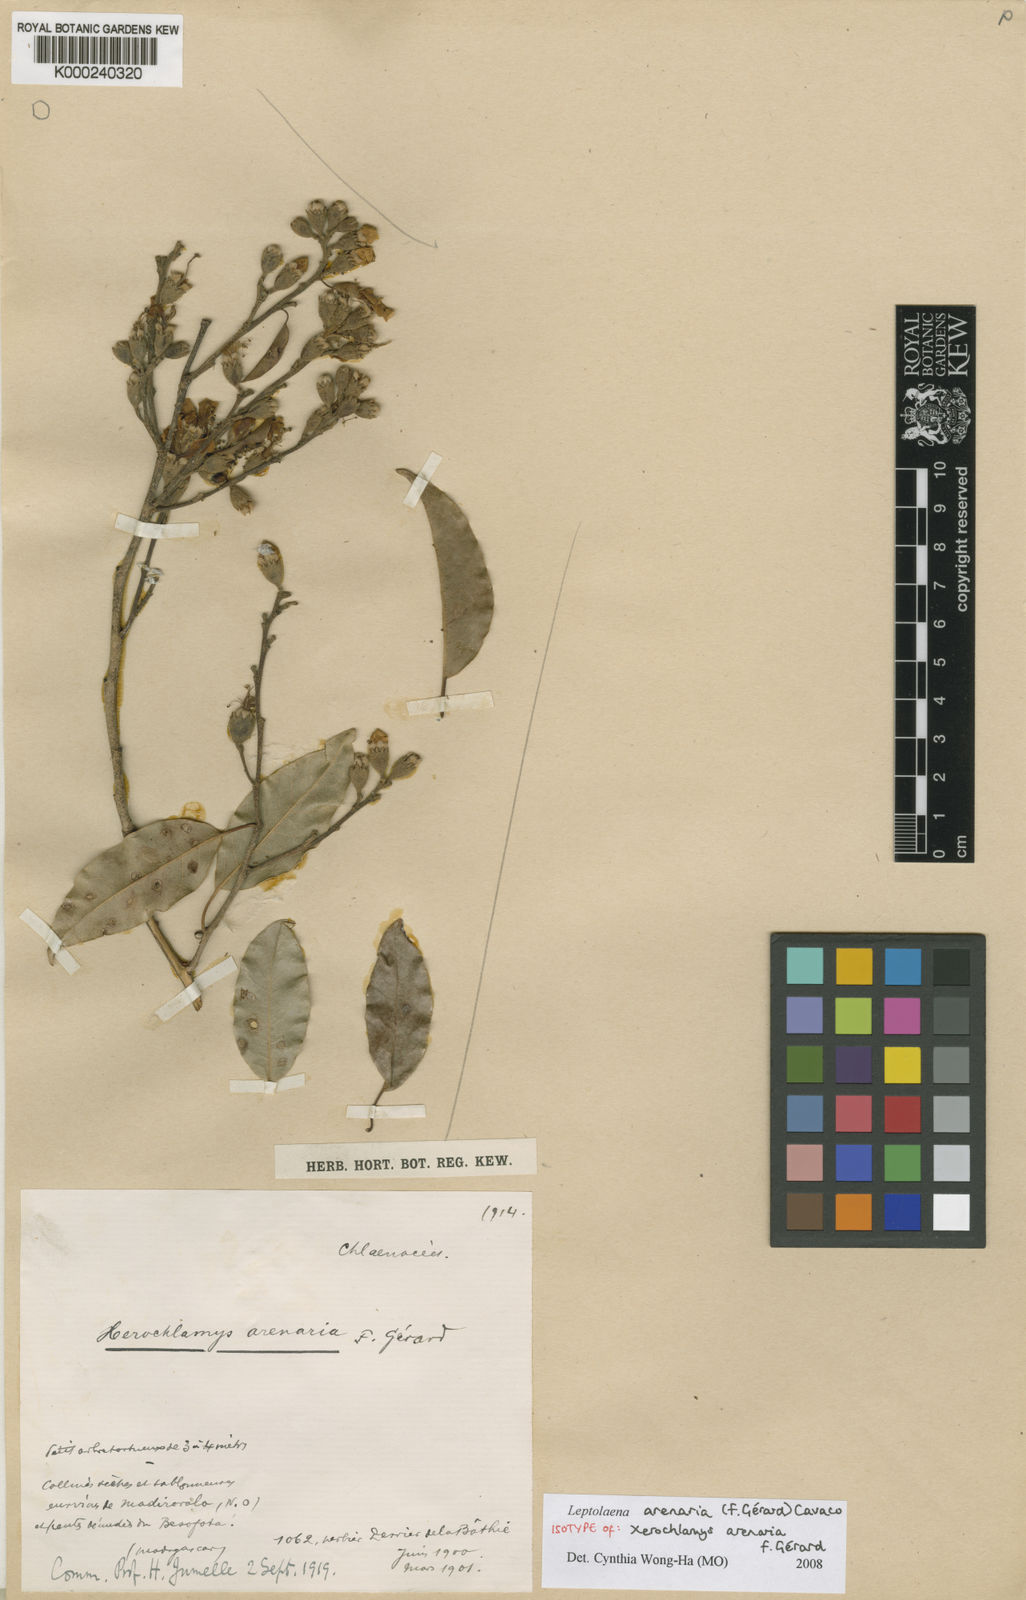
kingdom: Plantae
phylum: Tracheophyta
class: Magnoliopsida
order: Malvales
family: Sarcolaenaceae
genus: Leptolaena
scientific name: Leptolaena
